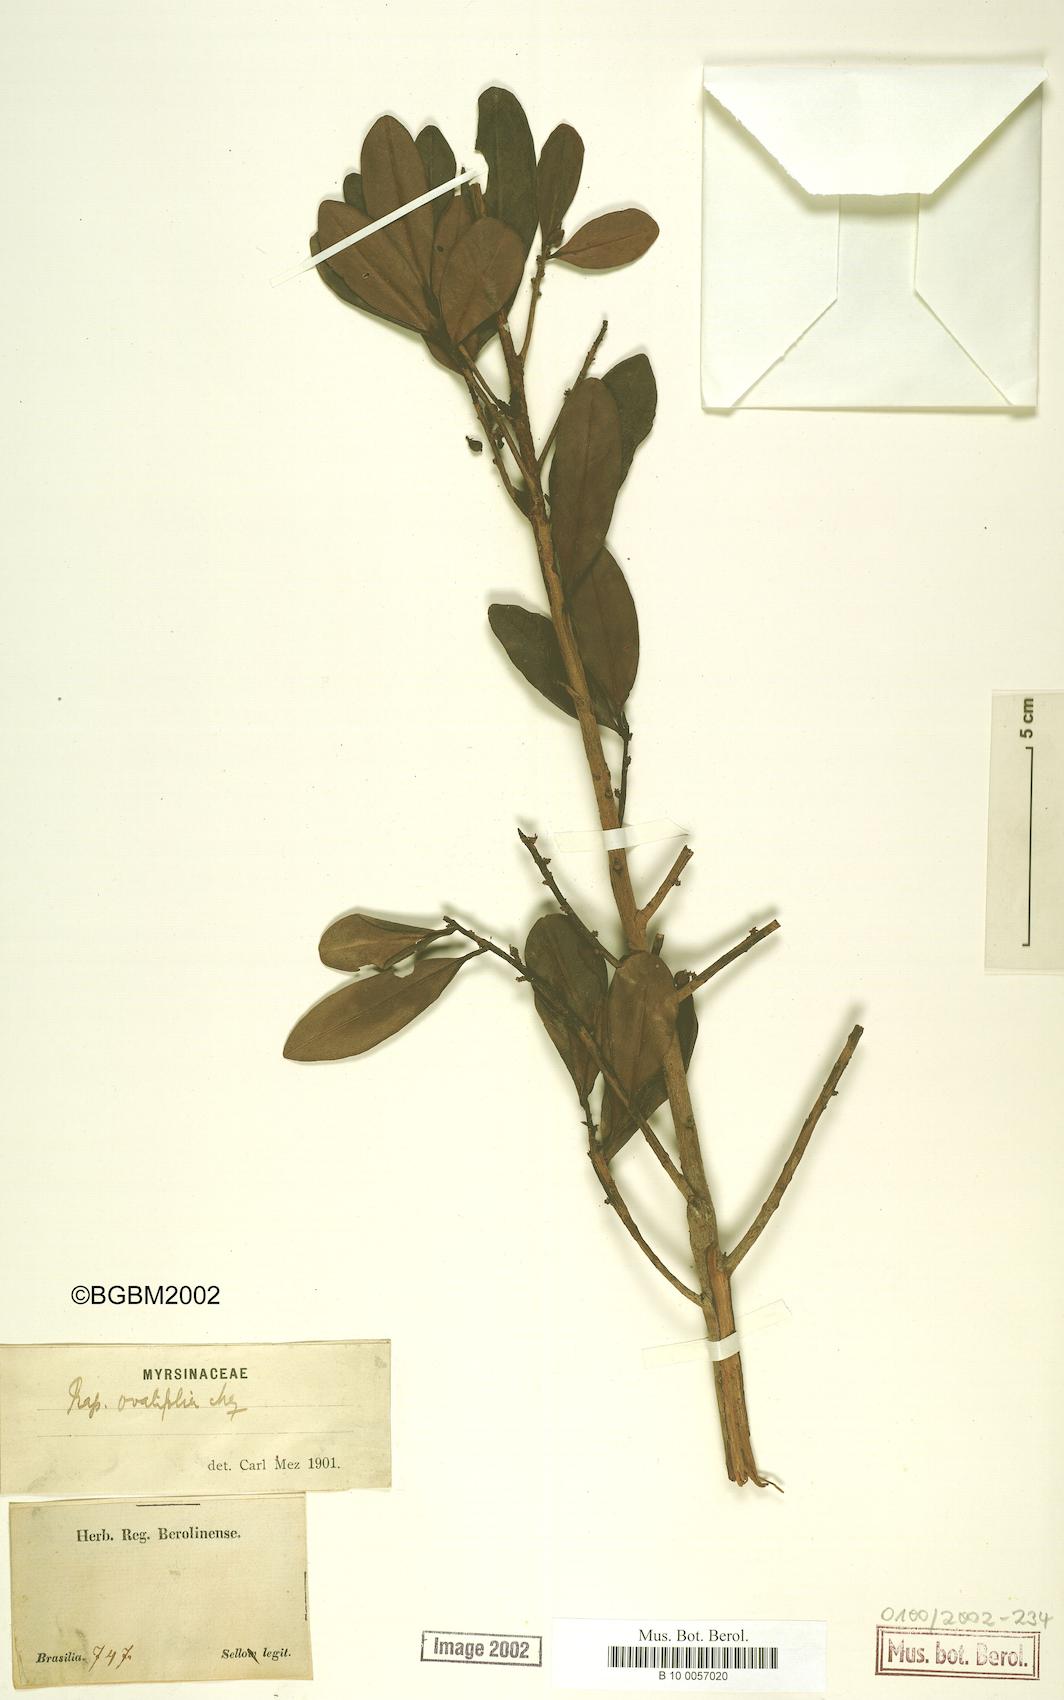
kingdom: Plantae
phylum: Tracheophyta
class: Magnoliopsida
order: Ericales
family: Primulaceae
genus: Myrsine
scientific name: Myrsine miquelii
